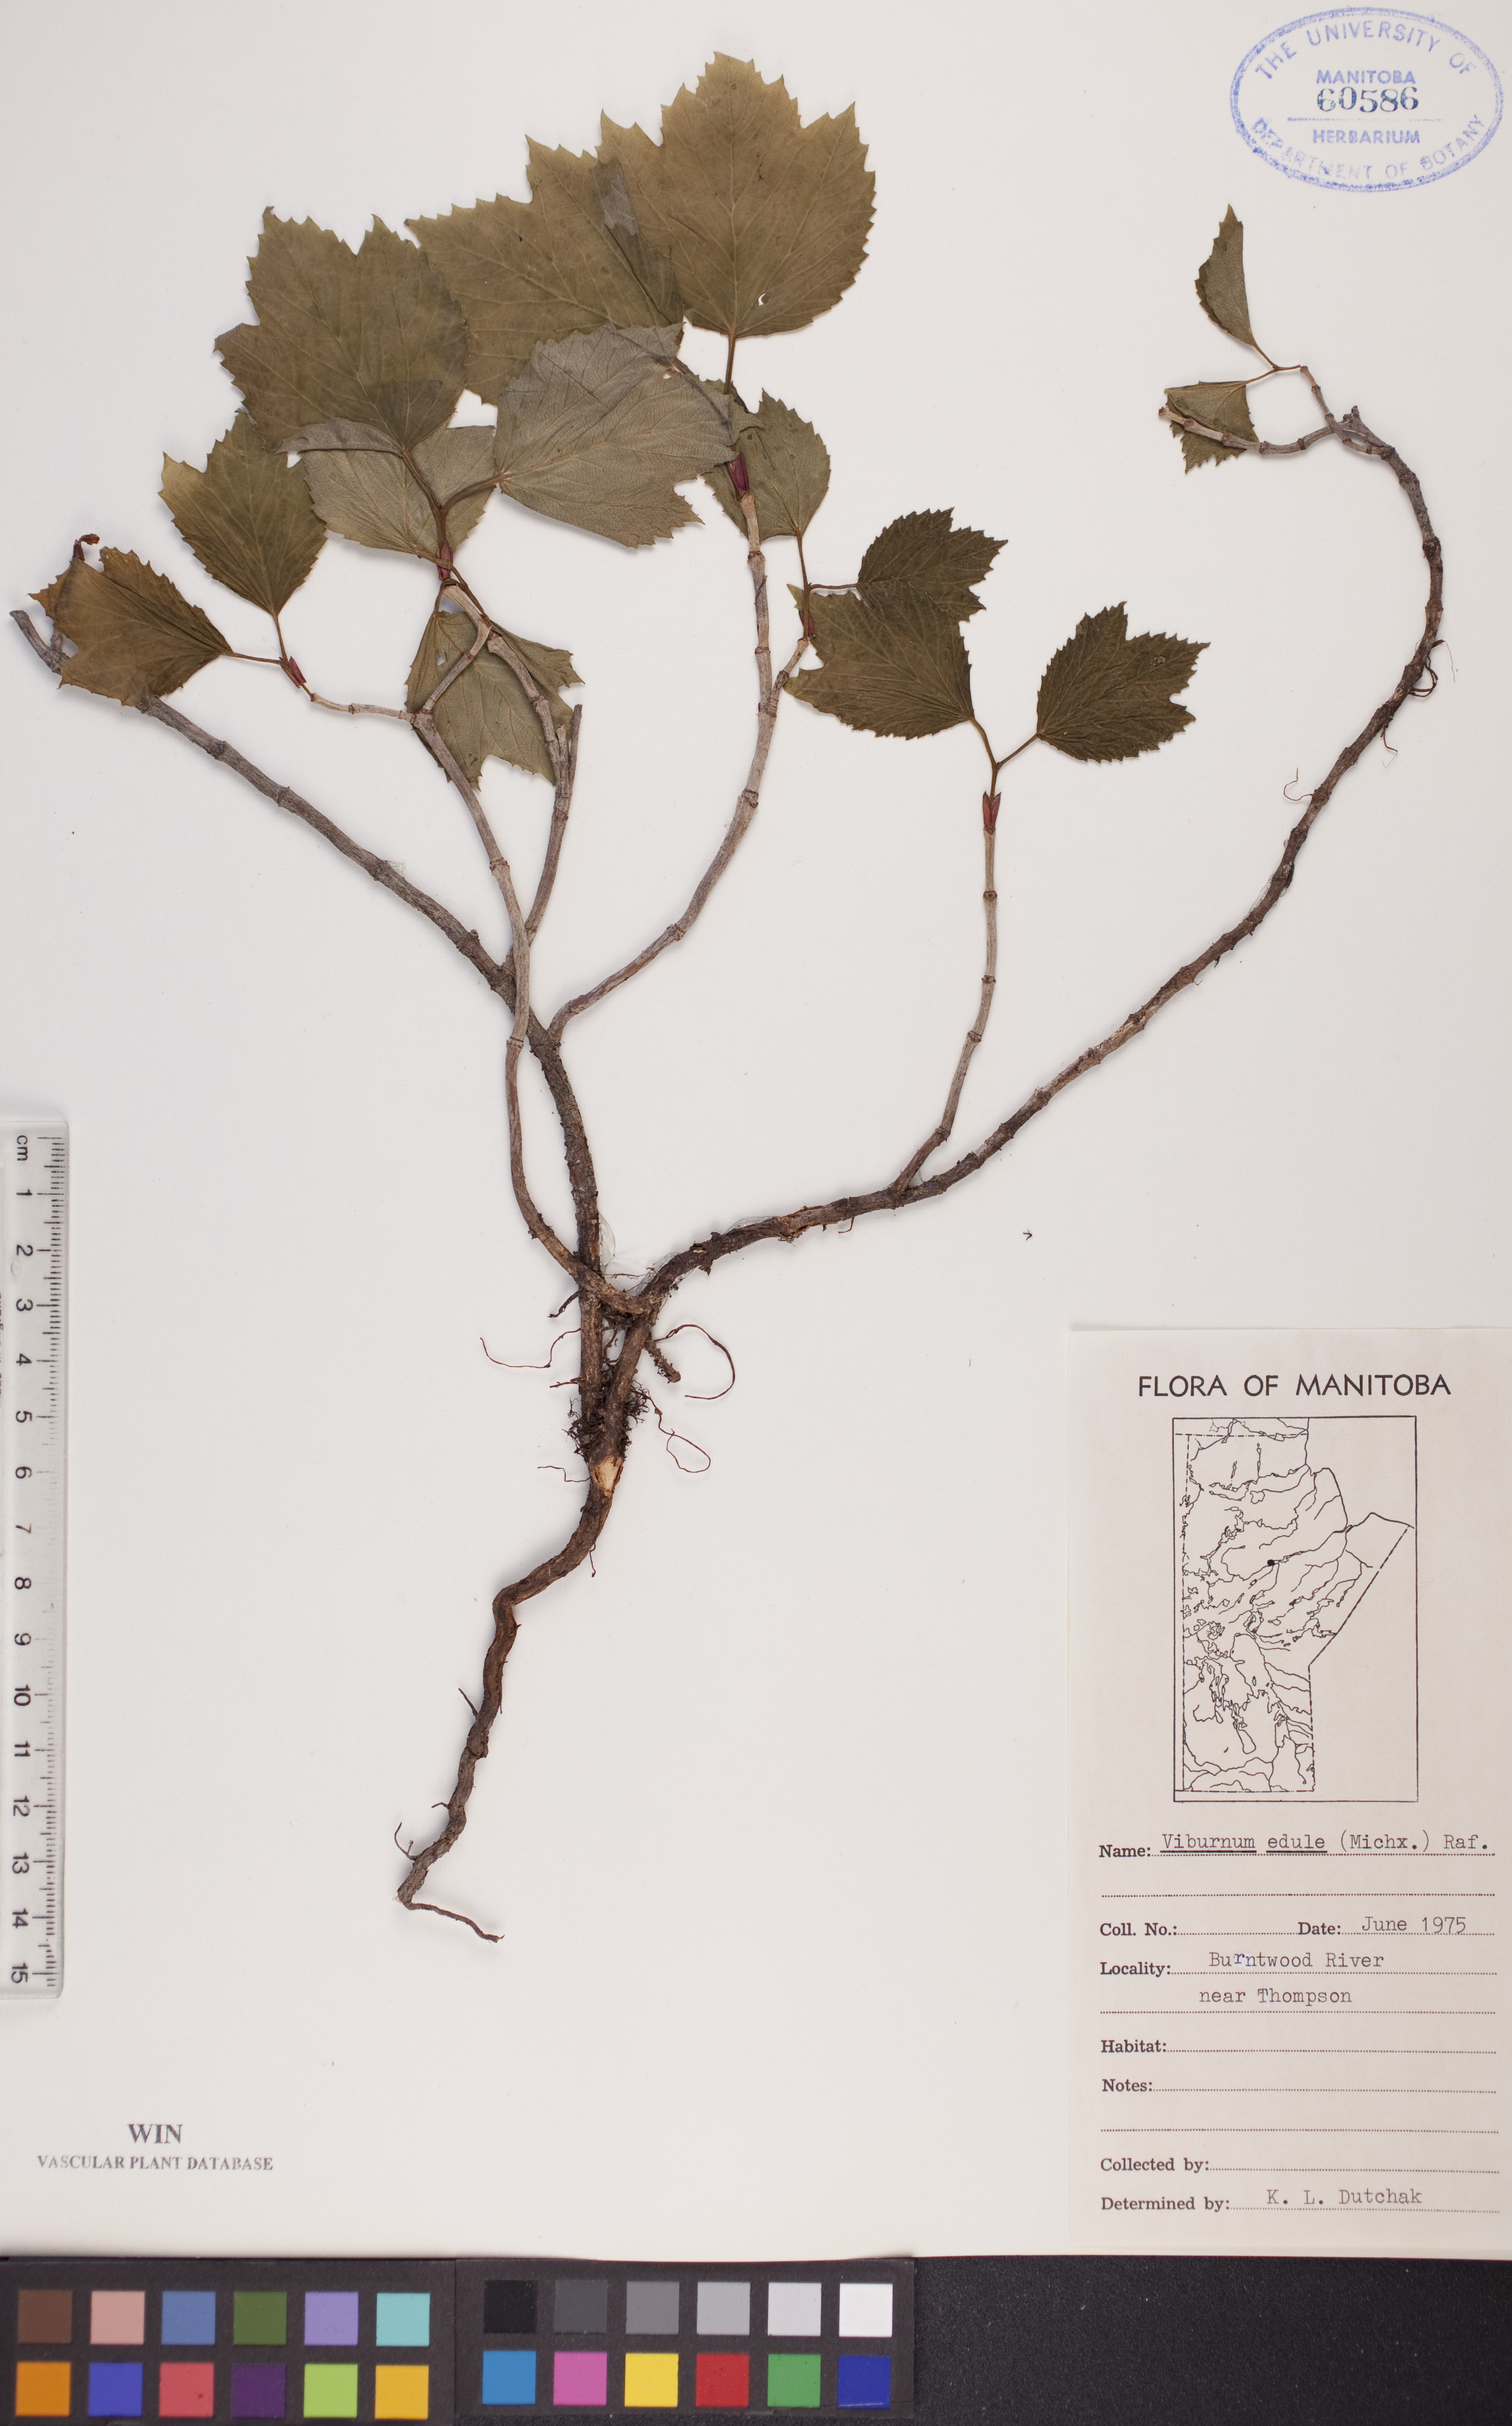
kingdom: Plantae
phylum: Tracheophyta
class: Magnoliopsida
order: Dipsacales
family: Viburnaceae
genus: Viburnum
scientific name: Viburnum edule
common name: Mooseberry
